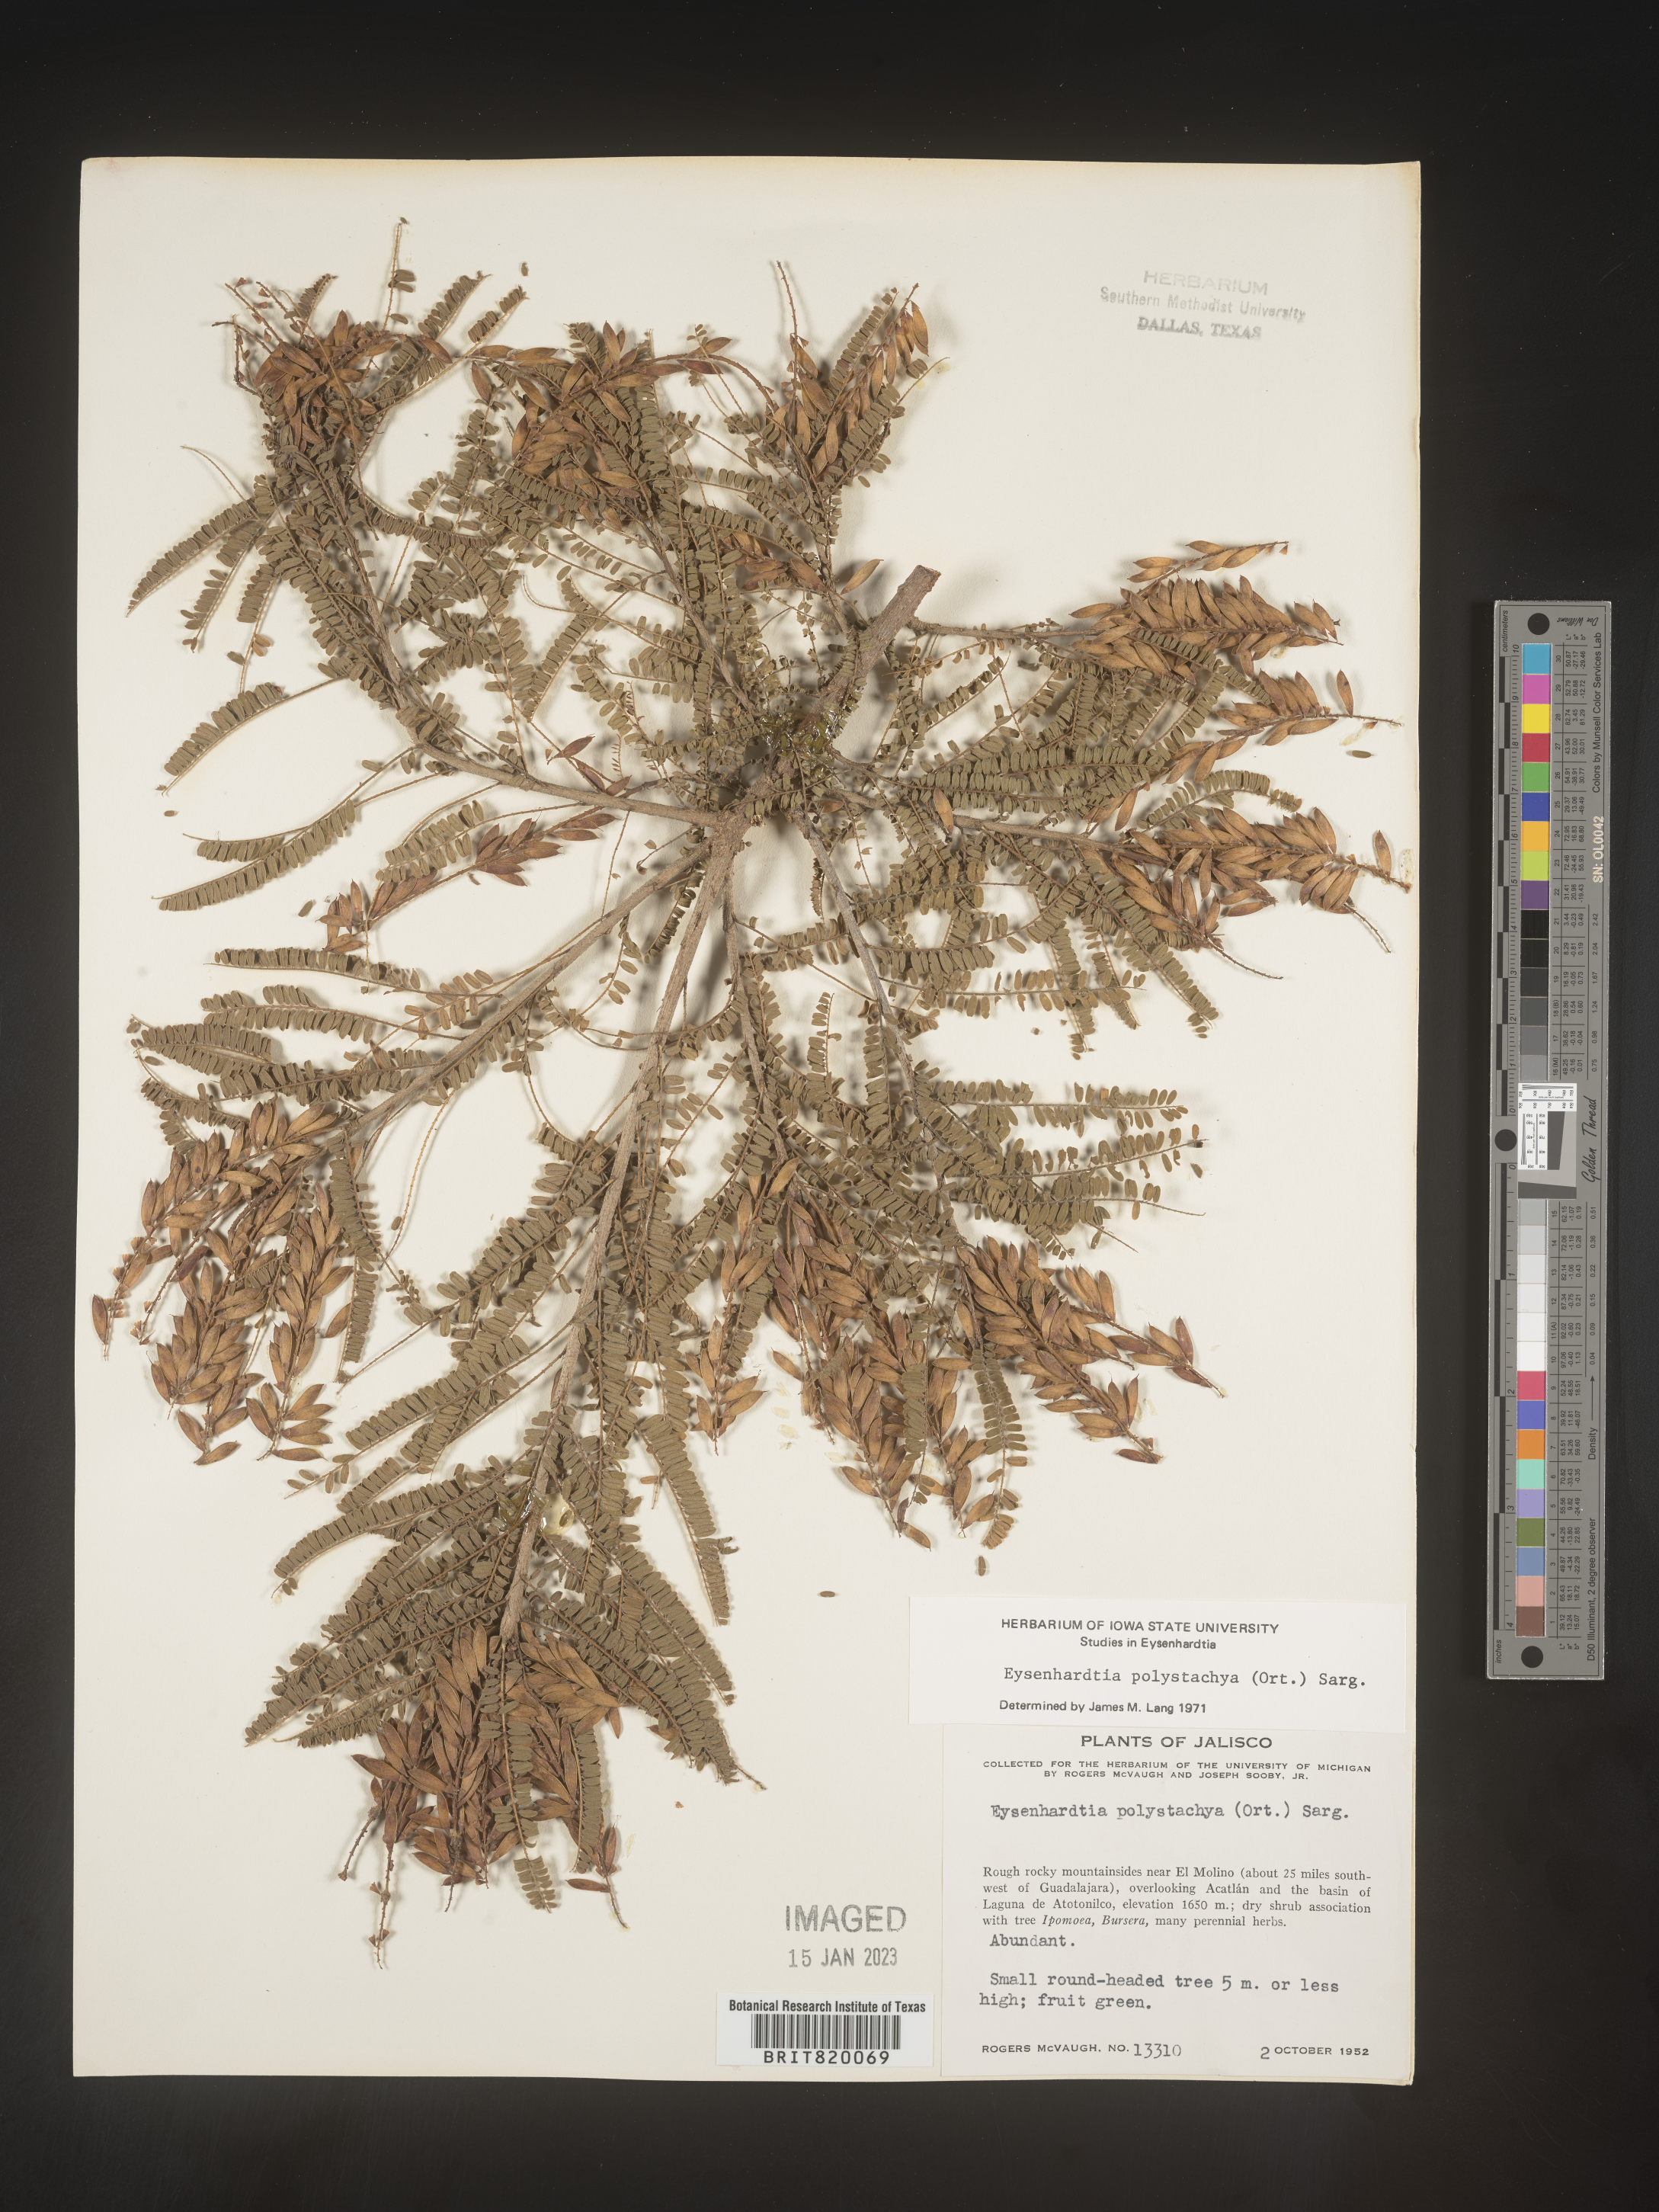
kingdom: Plantae
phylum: Tracheophyta
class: Magnoliopsida
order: Fabales
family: Fabaceae
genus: Eysenhardtia
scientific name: Eysenhardtia
